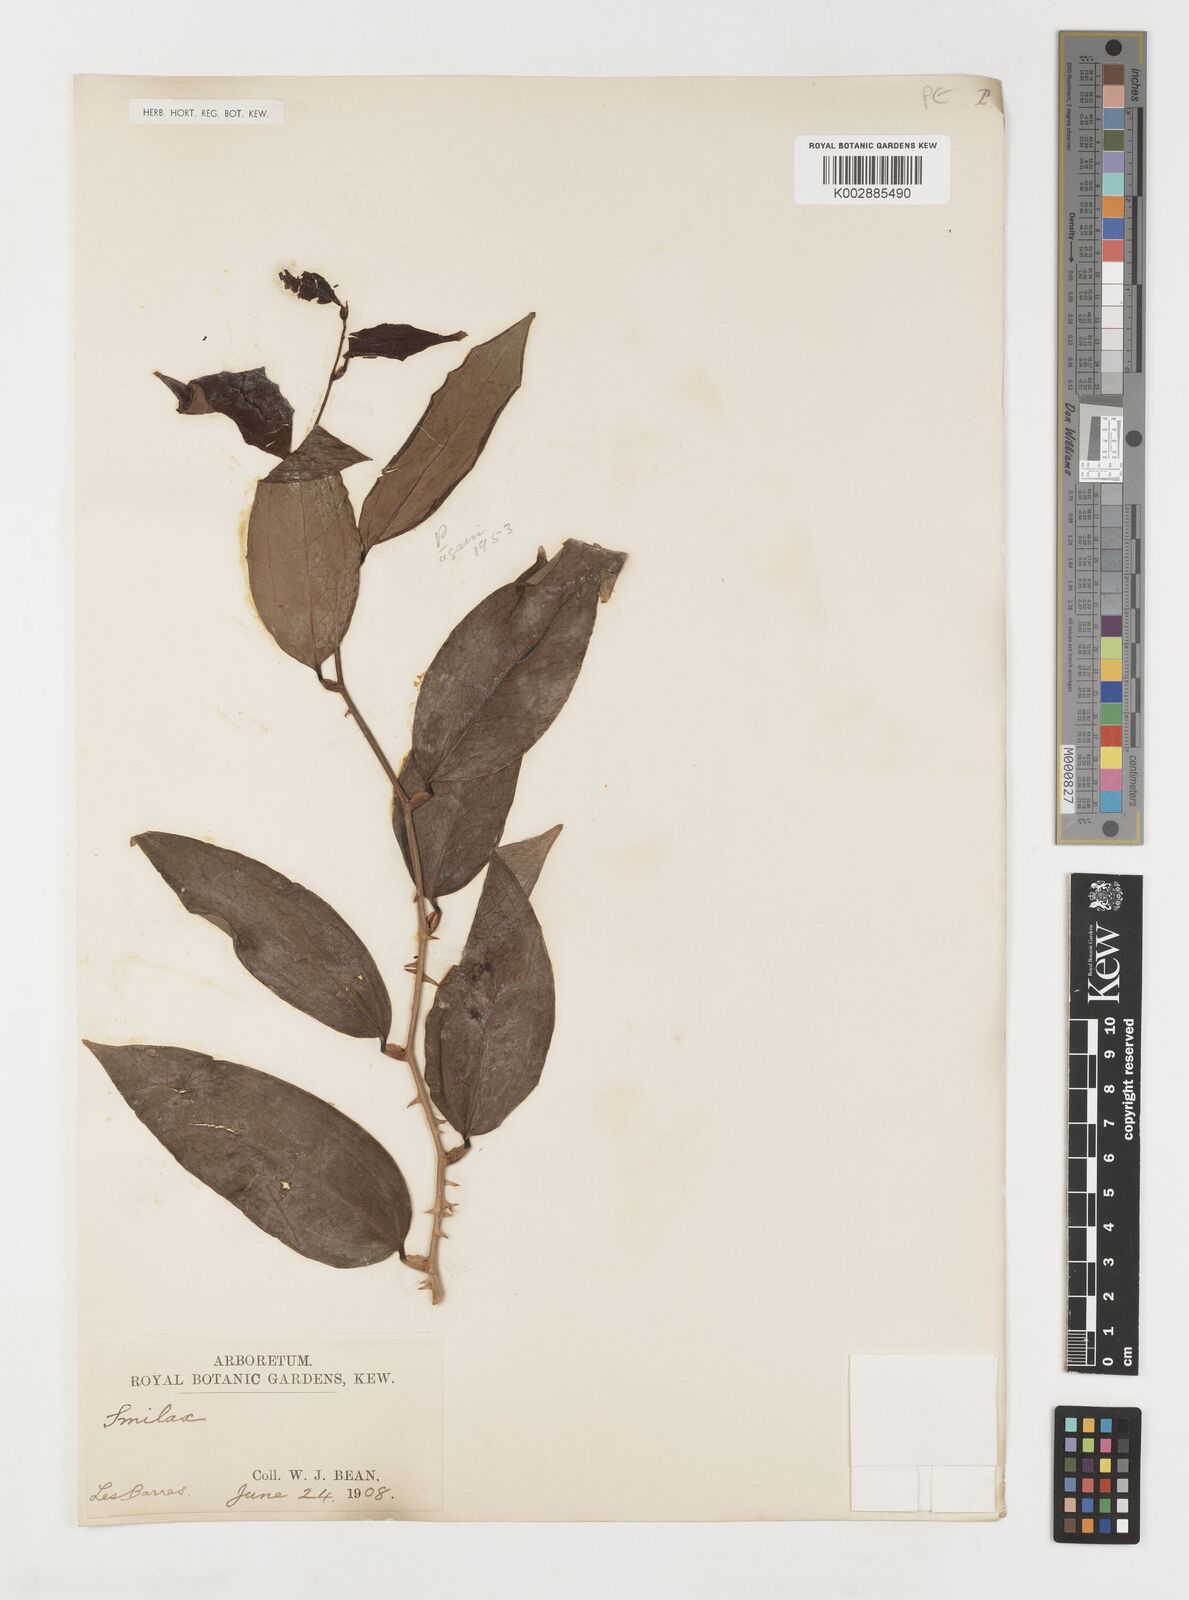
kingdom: Plantae
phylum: Tracheophyta
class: Liliopsida
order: Liliales
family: Smilacaceae
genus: Smilax
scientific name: Smilax
